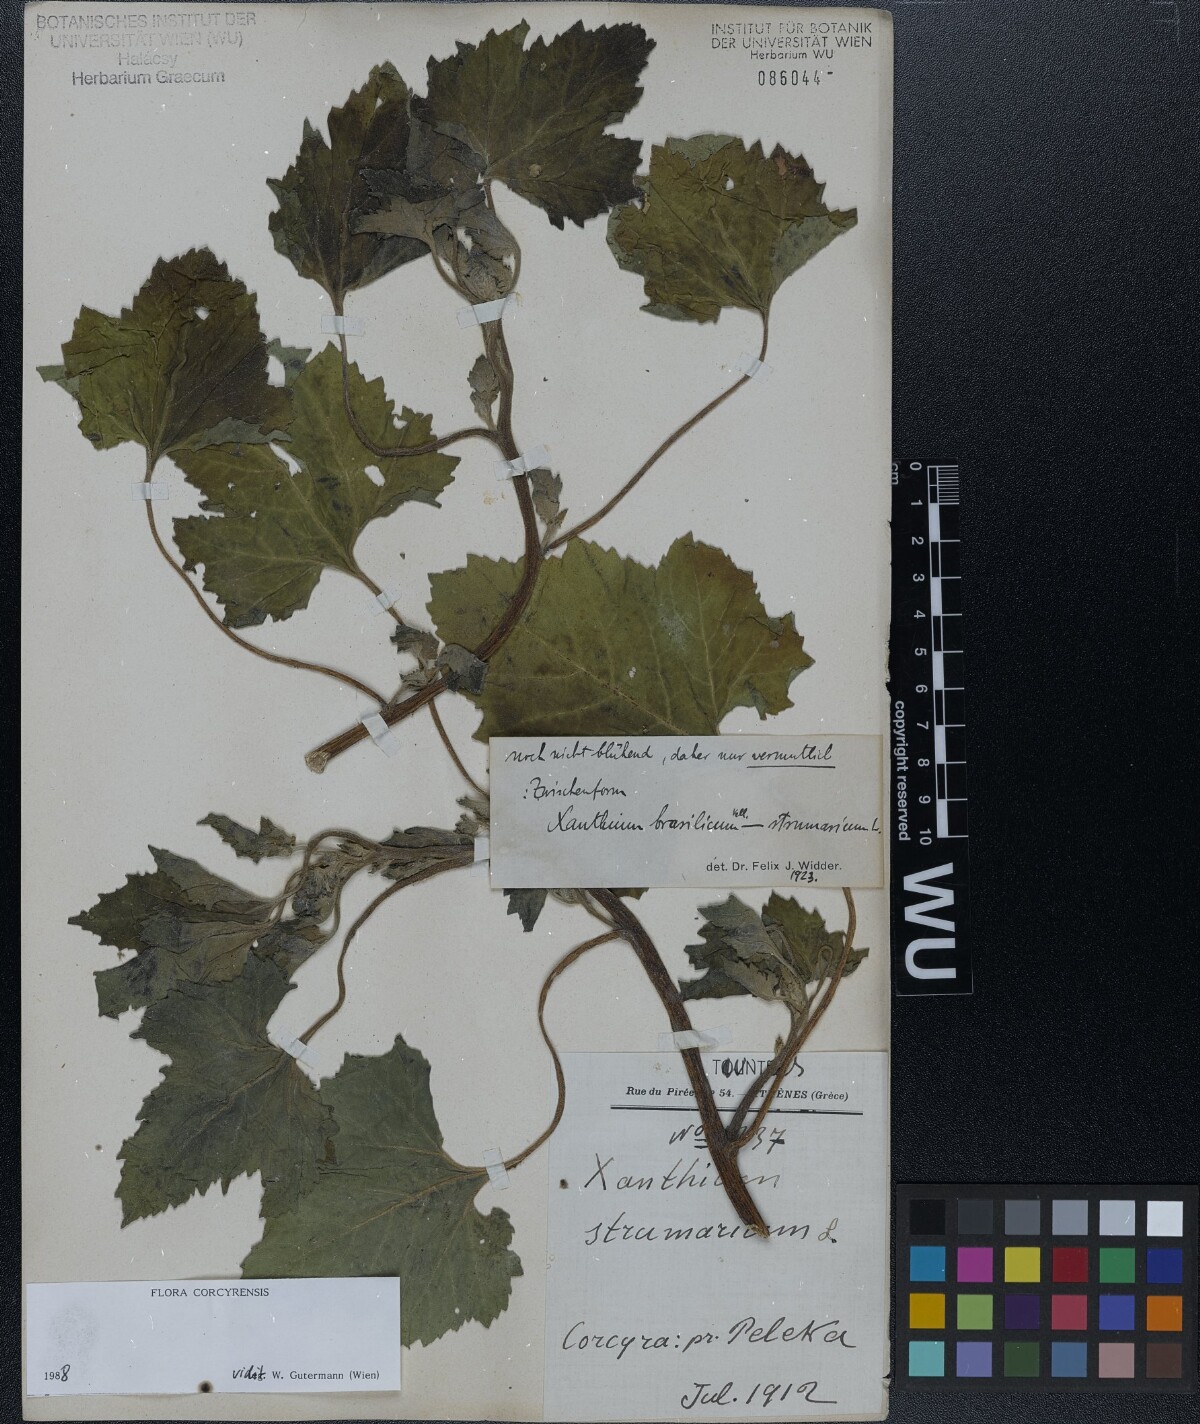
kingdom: Plantae
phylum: Tracheophyta
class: Magnoliopsida
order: Asterales
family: Asteraceae
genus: Xanthium
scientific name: Xanthium
